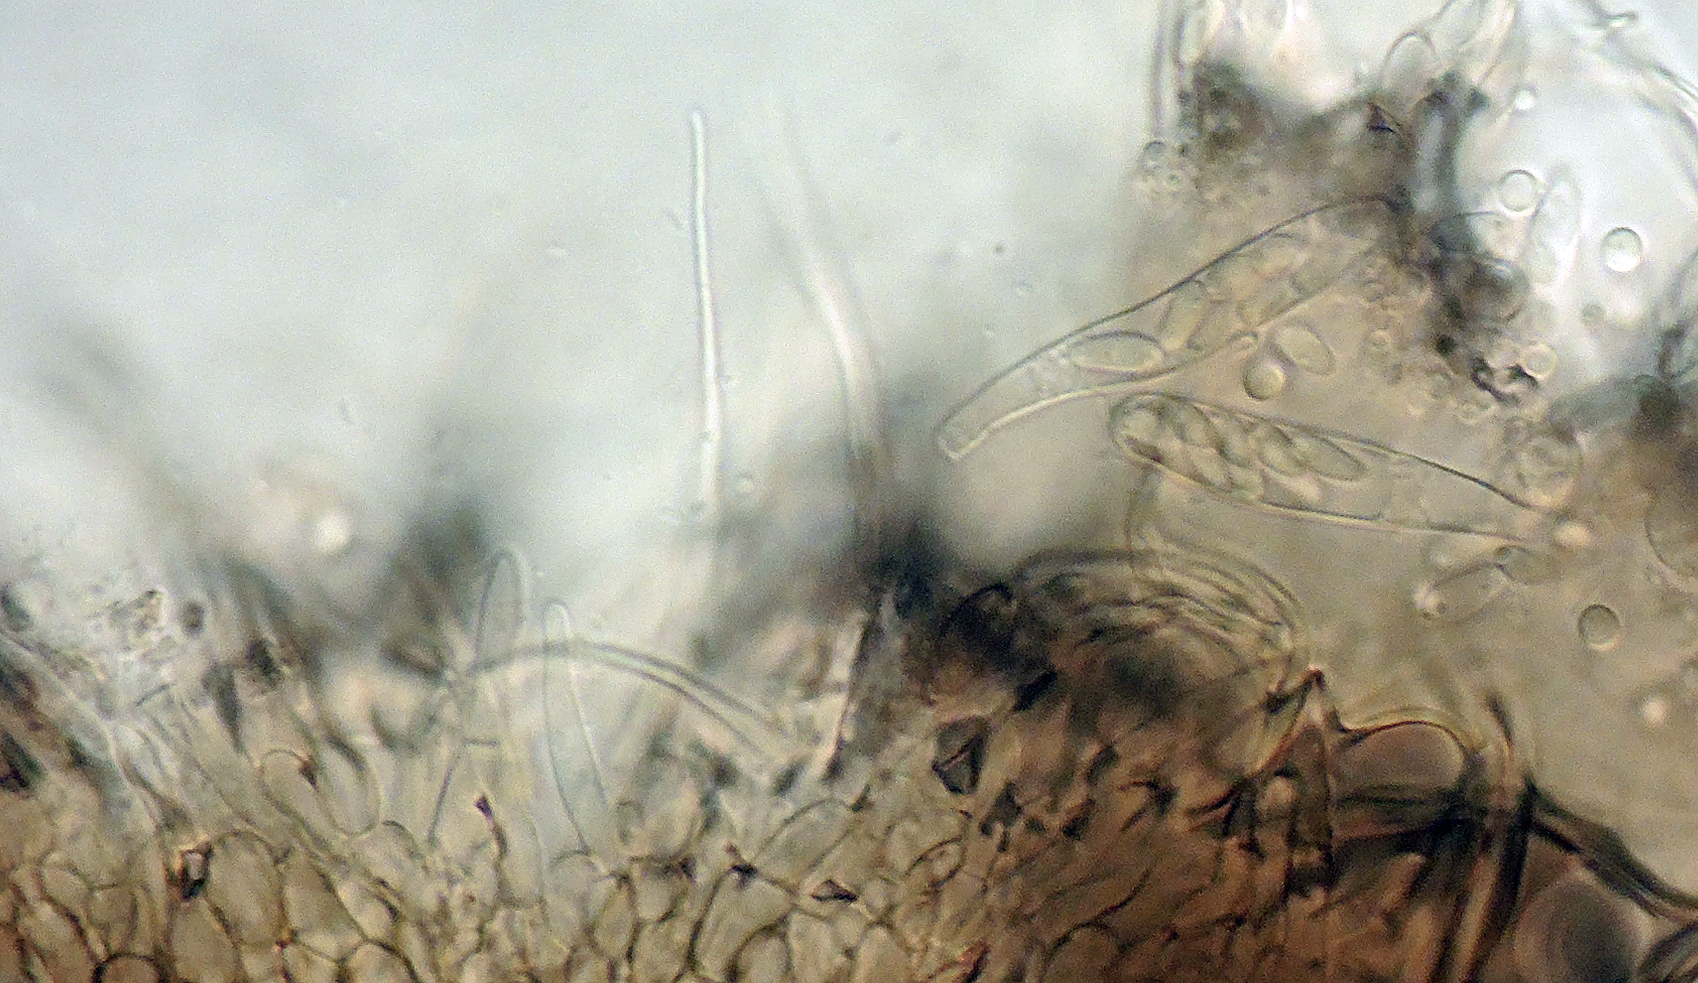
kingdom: Fungi
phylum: Ascomycota
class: Leotiomycetes
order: Helotiales
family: Hyaloscyphaceae
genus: Dematioscypha
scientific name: Dematioscypha dematiicola
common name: grålig skimmelskive
